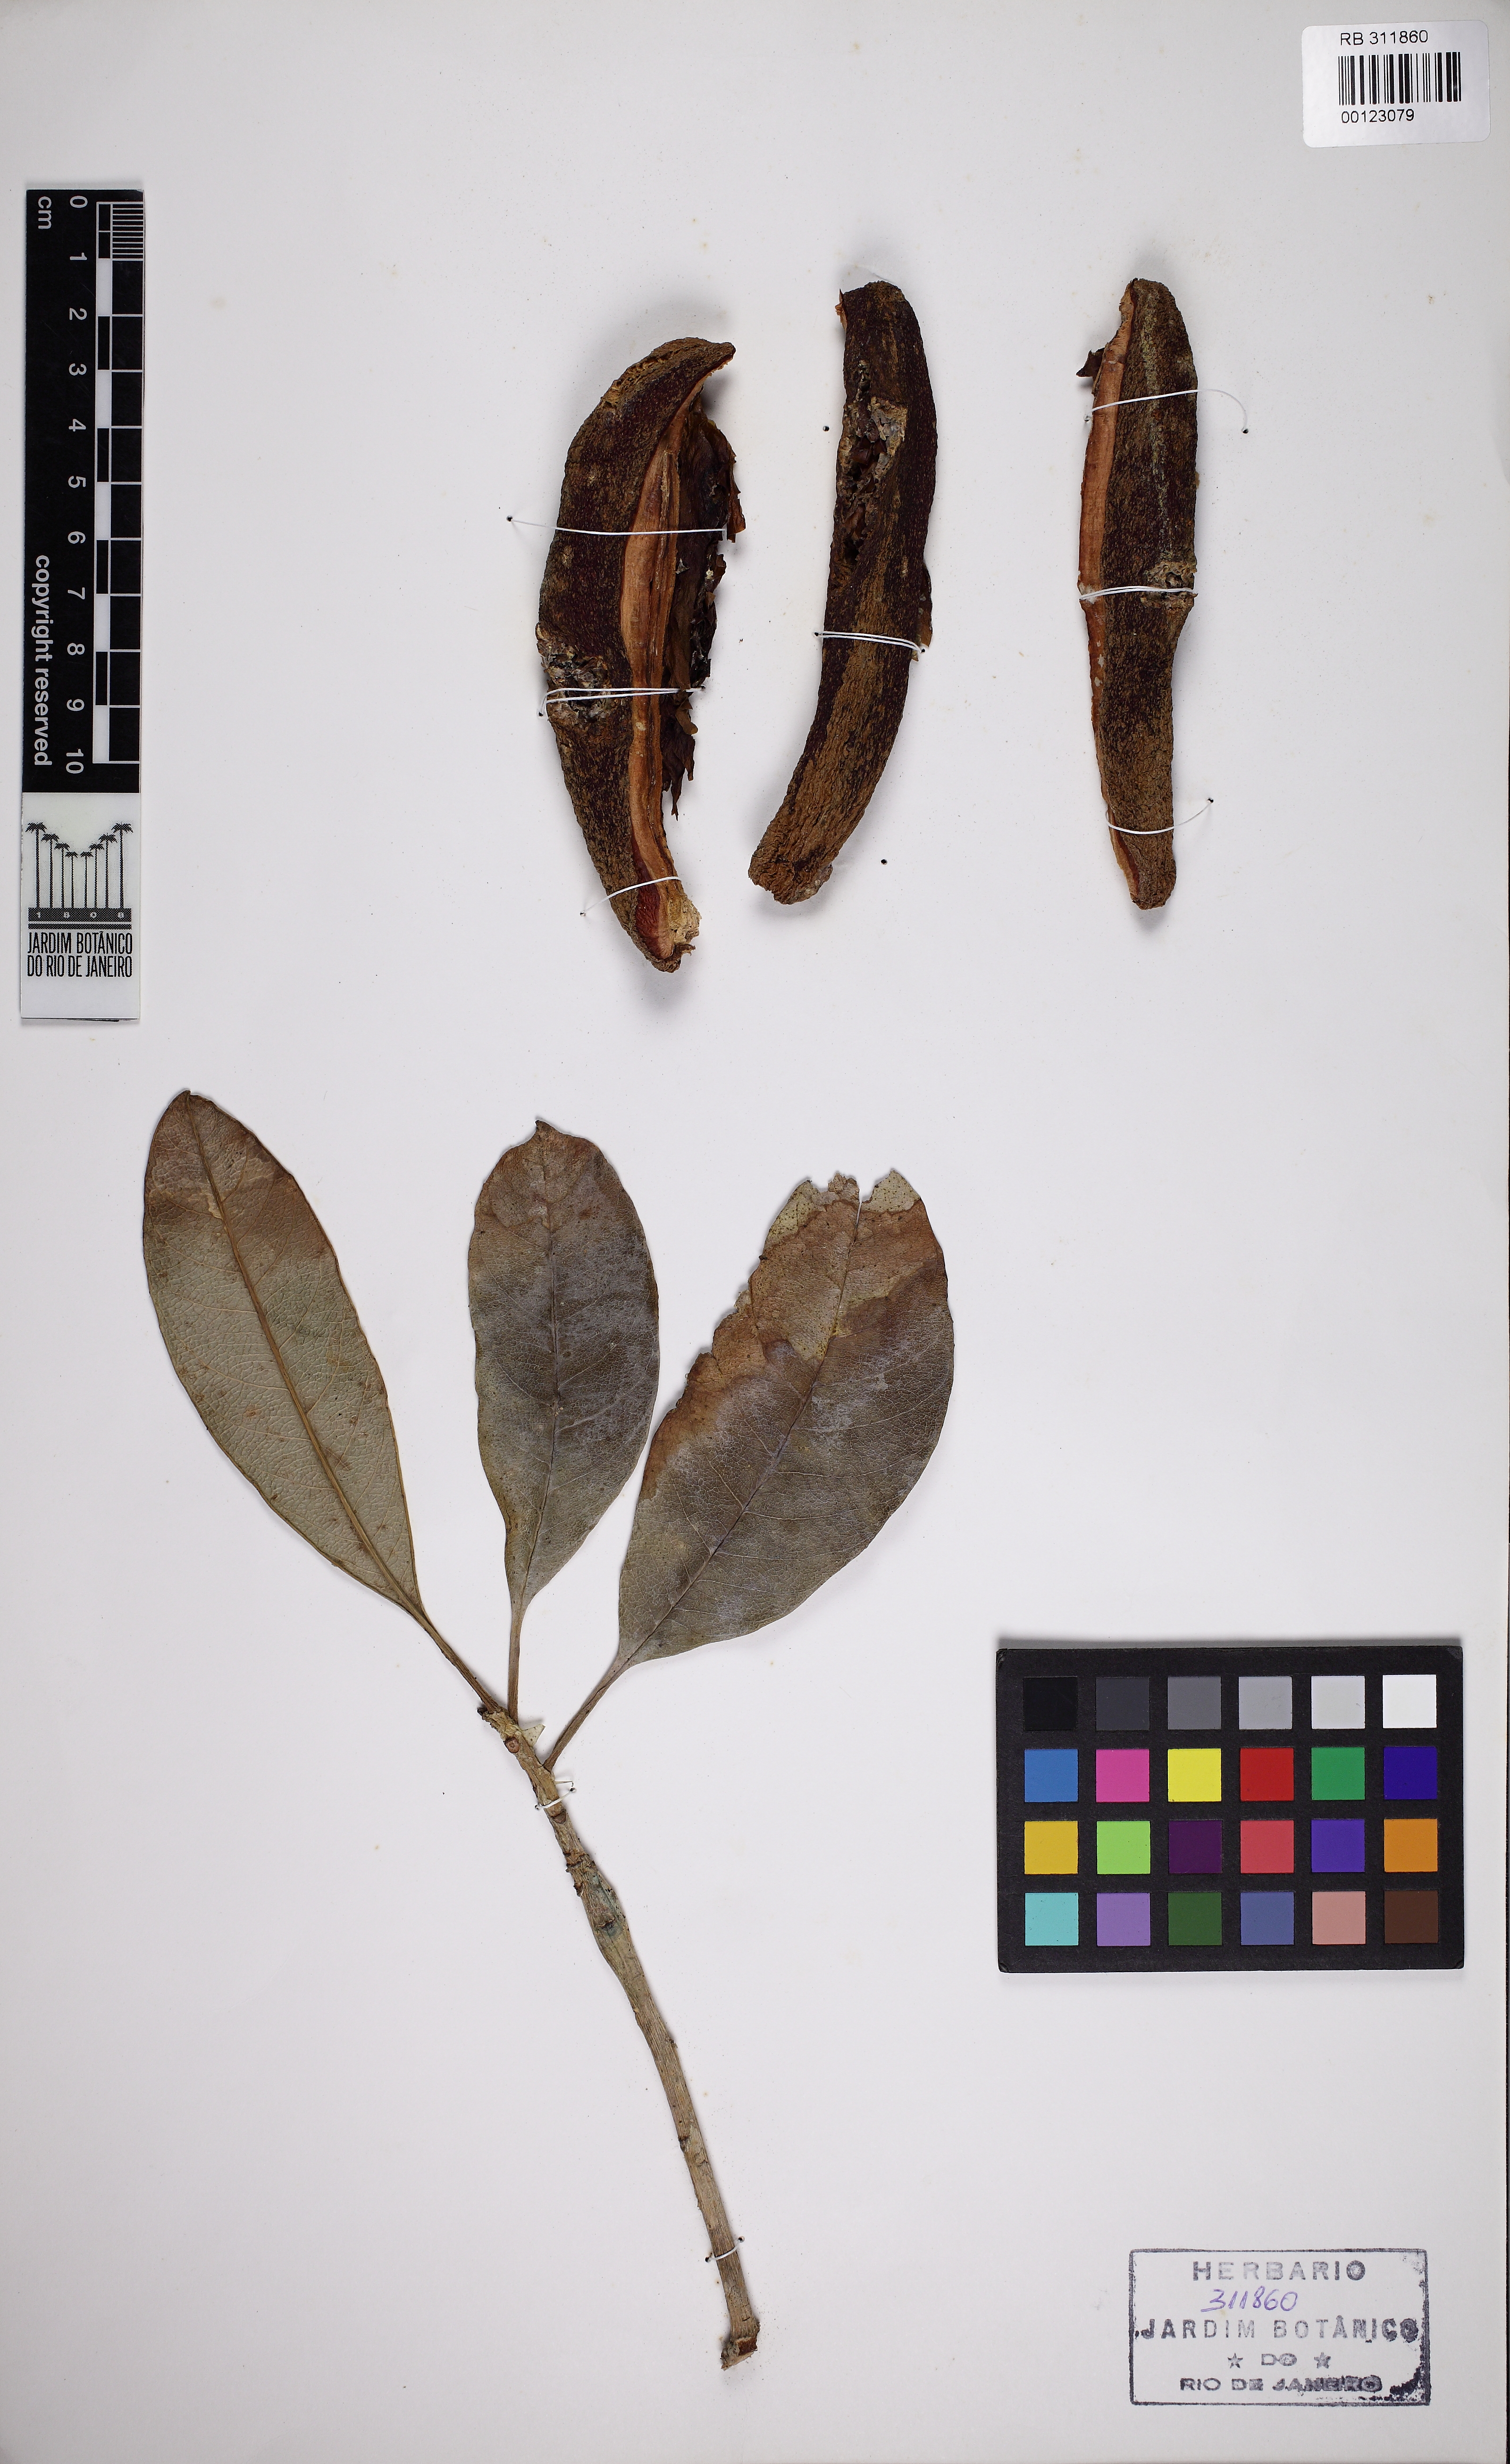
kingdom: Plantae
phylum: Tracheophyta
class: Magnoliopsida
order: Malpighiales
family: Calophyllaceae
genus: Kielmeyera
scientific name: Kielmeyera rizziniana
